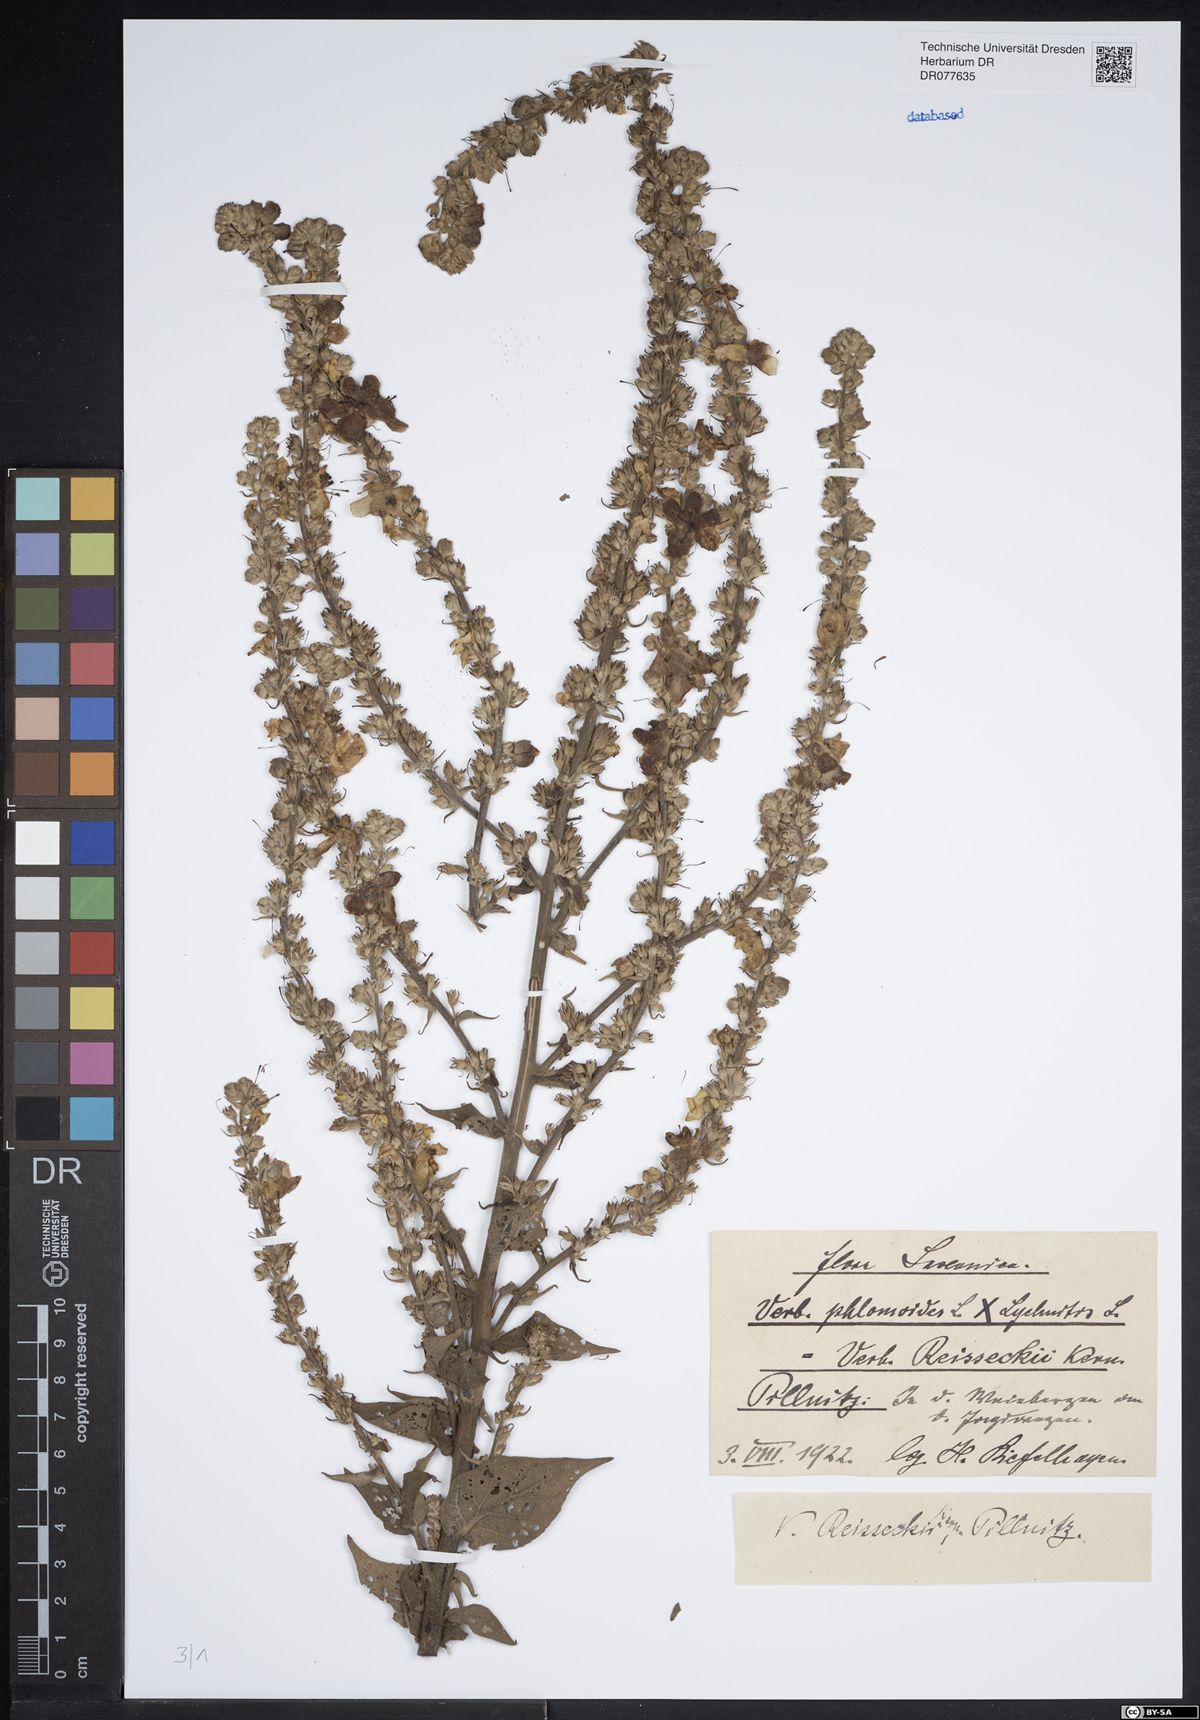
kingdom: Plantae
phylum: Tracheophyta
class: Magnoliopsida
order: Lamiales
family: Scrophulariaceae
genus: Verbascum
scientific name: Verbascum denudatum
